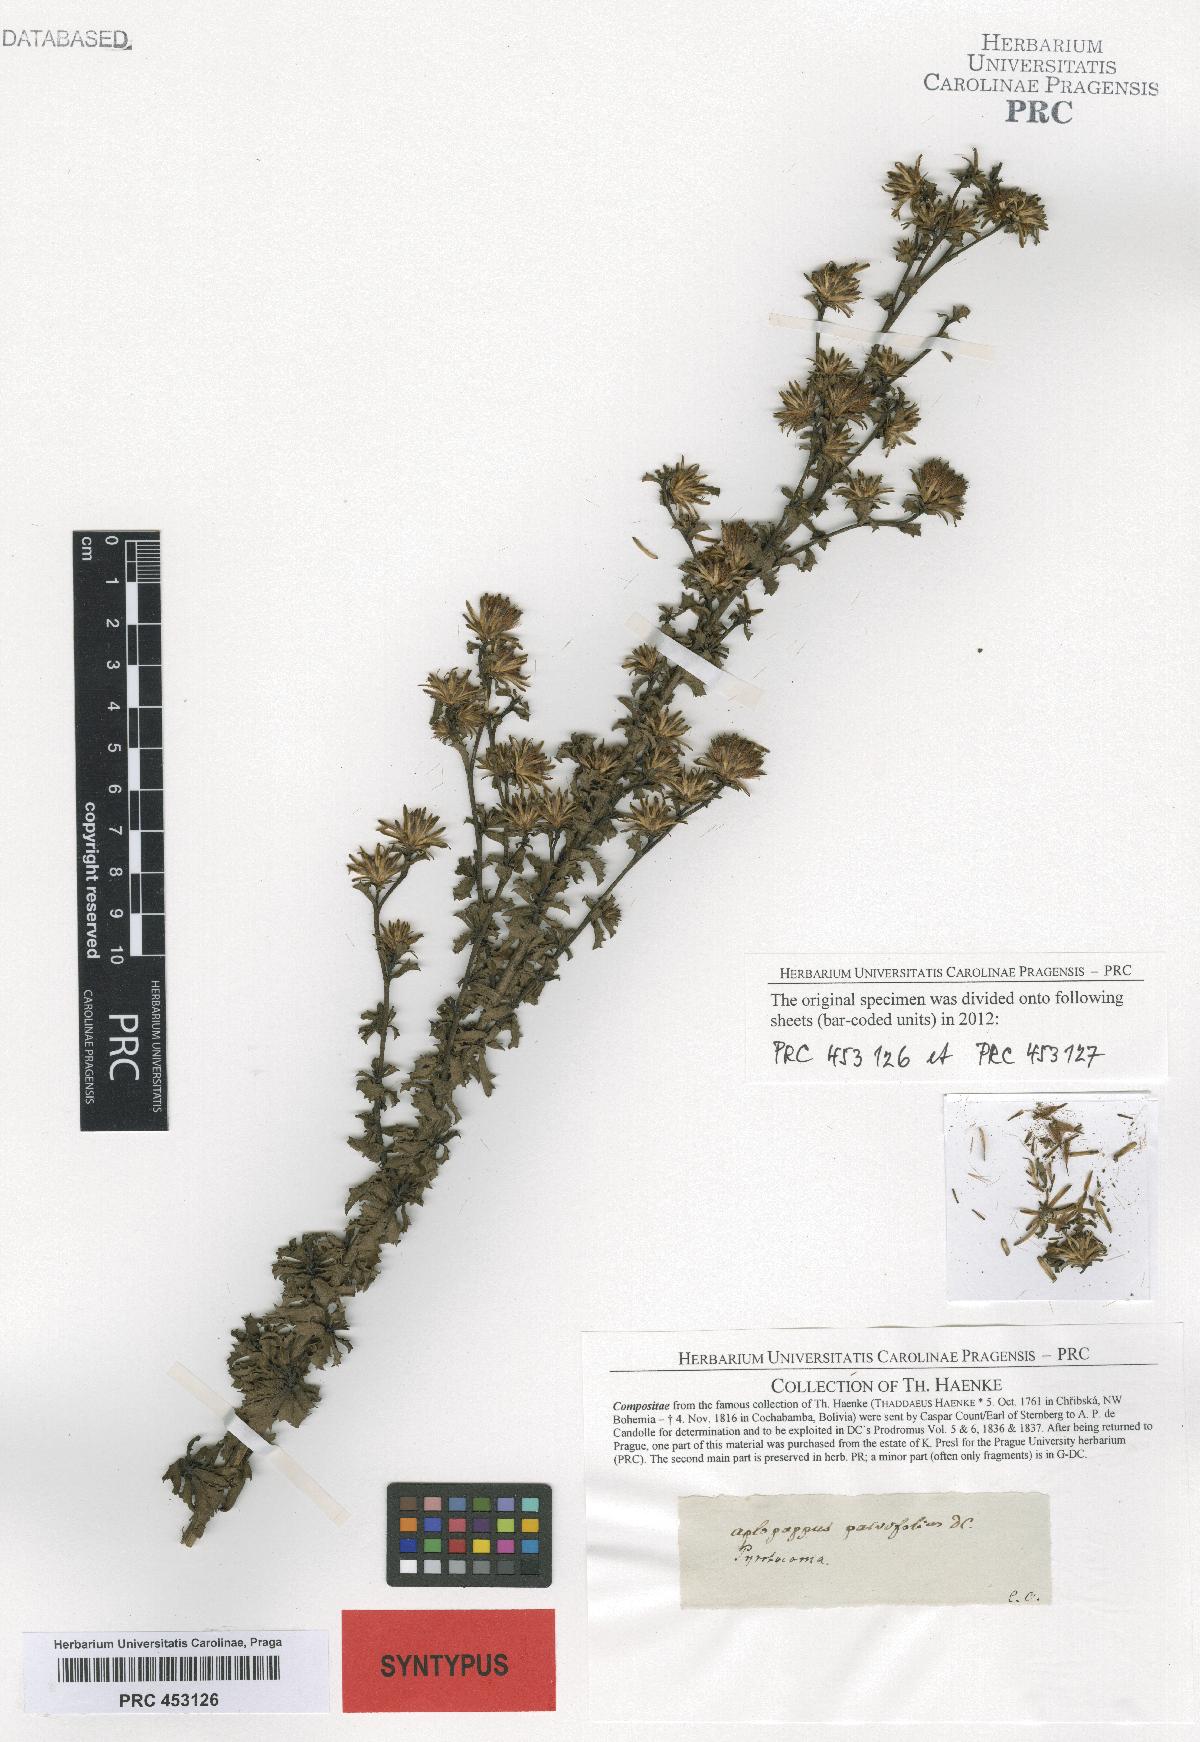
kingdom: Plantae
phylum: Tracheophyta
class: Magnoliopsida
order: Asterales
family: Asteraceae
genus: Haplopappus
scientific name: Haplopappus parvifolius
